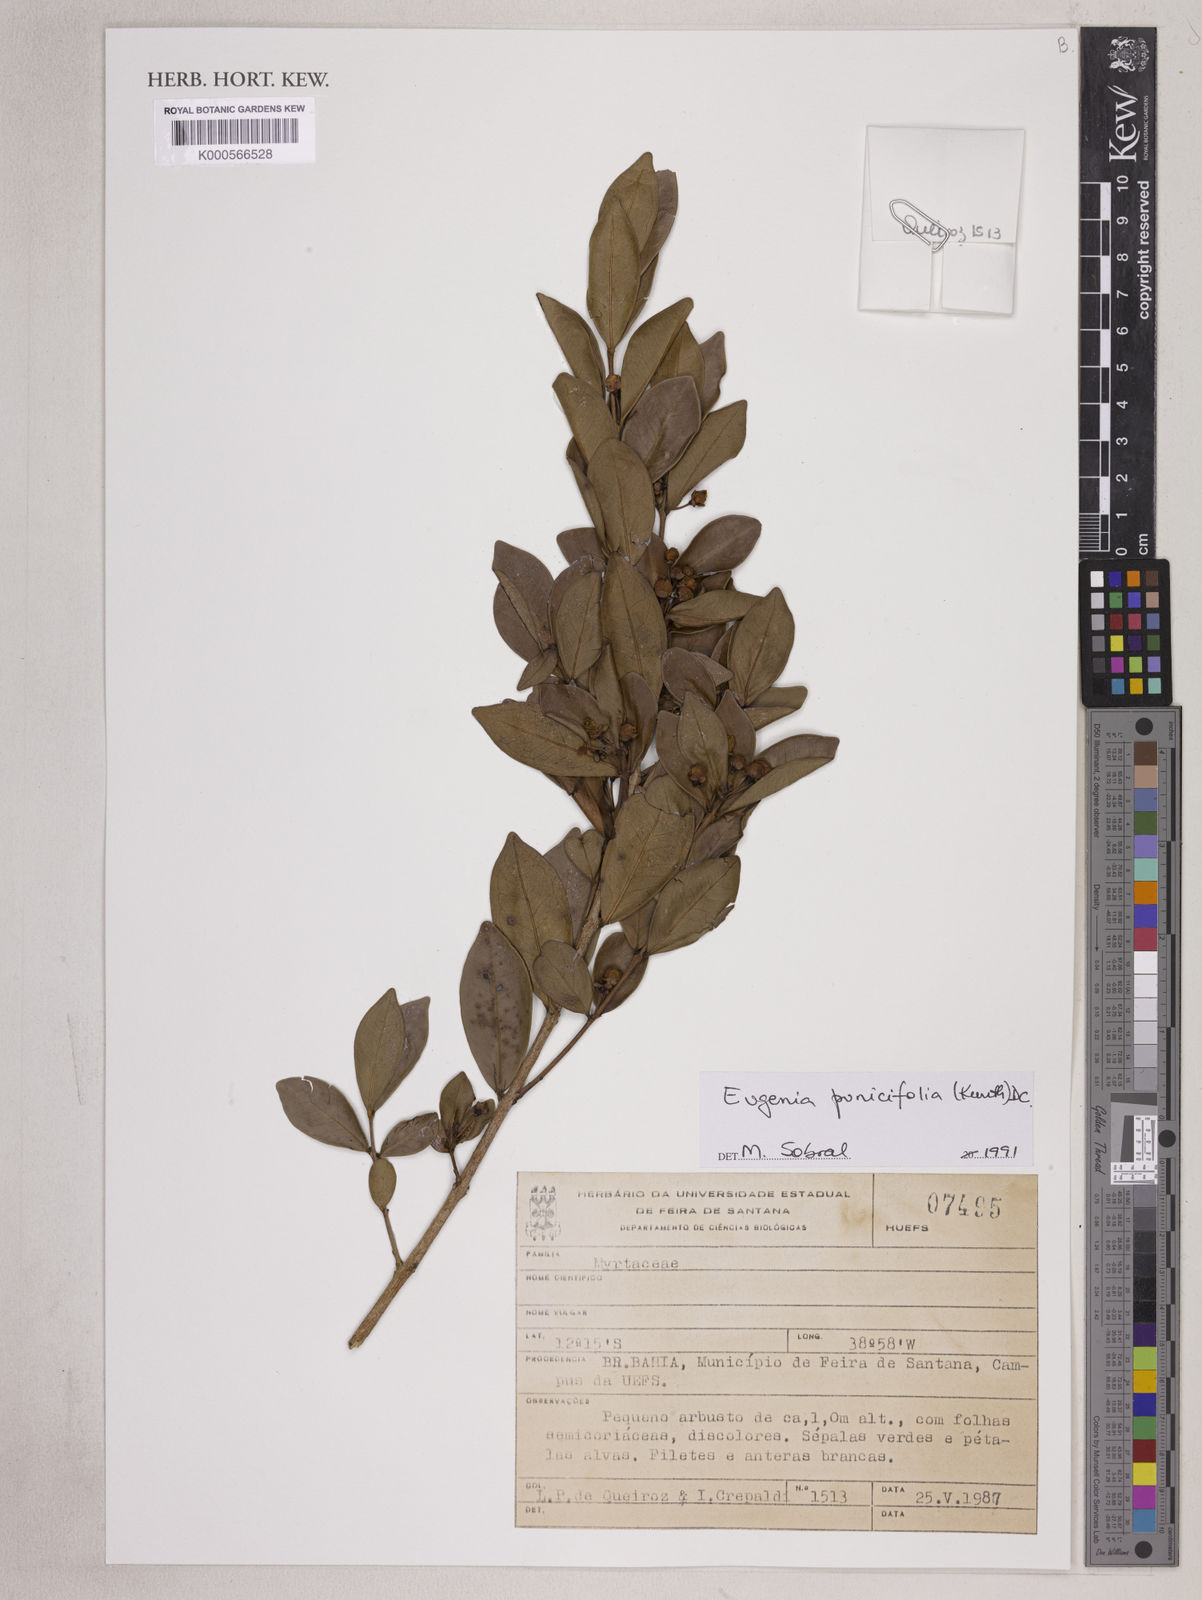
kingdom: Plantae
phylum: Tracheophyta
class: Magnoliopsida
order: Myrtales
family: Myrtaceae
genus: Eugenia
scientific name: Eugenia punicifolia
